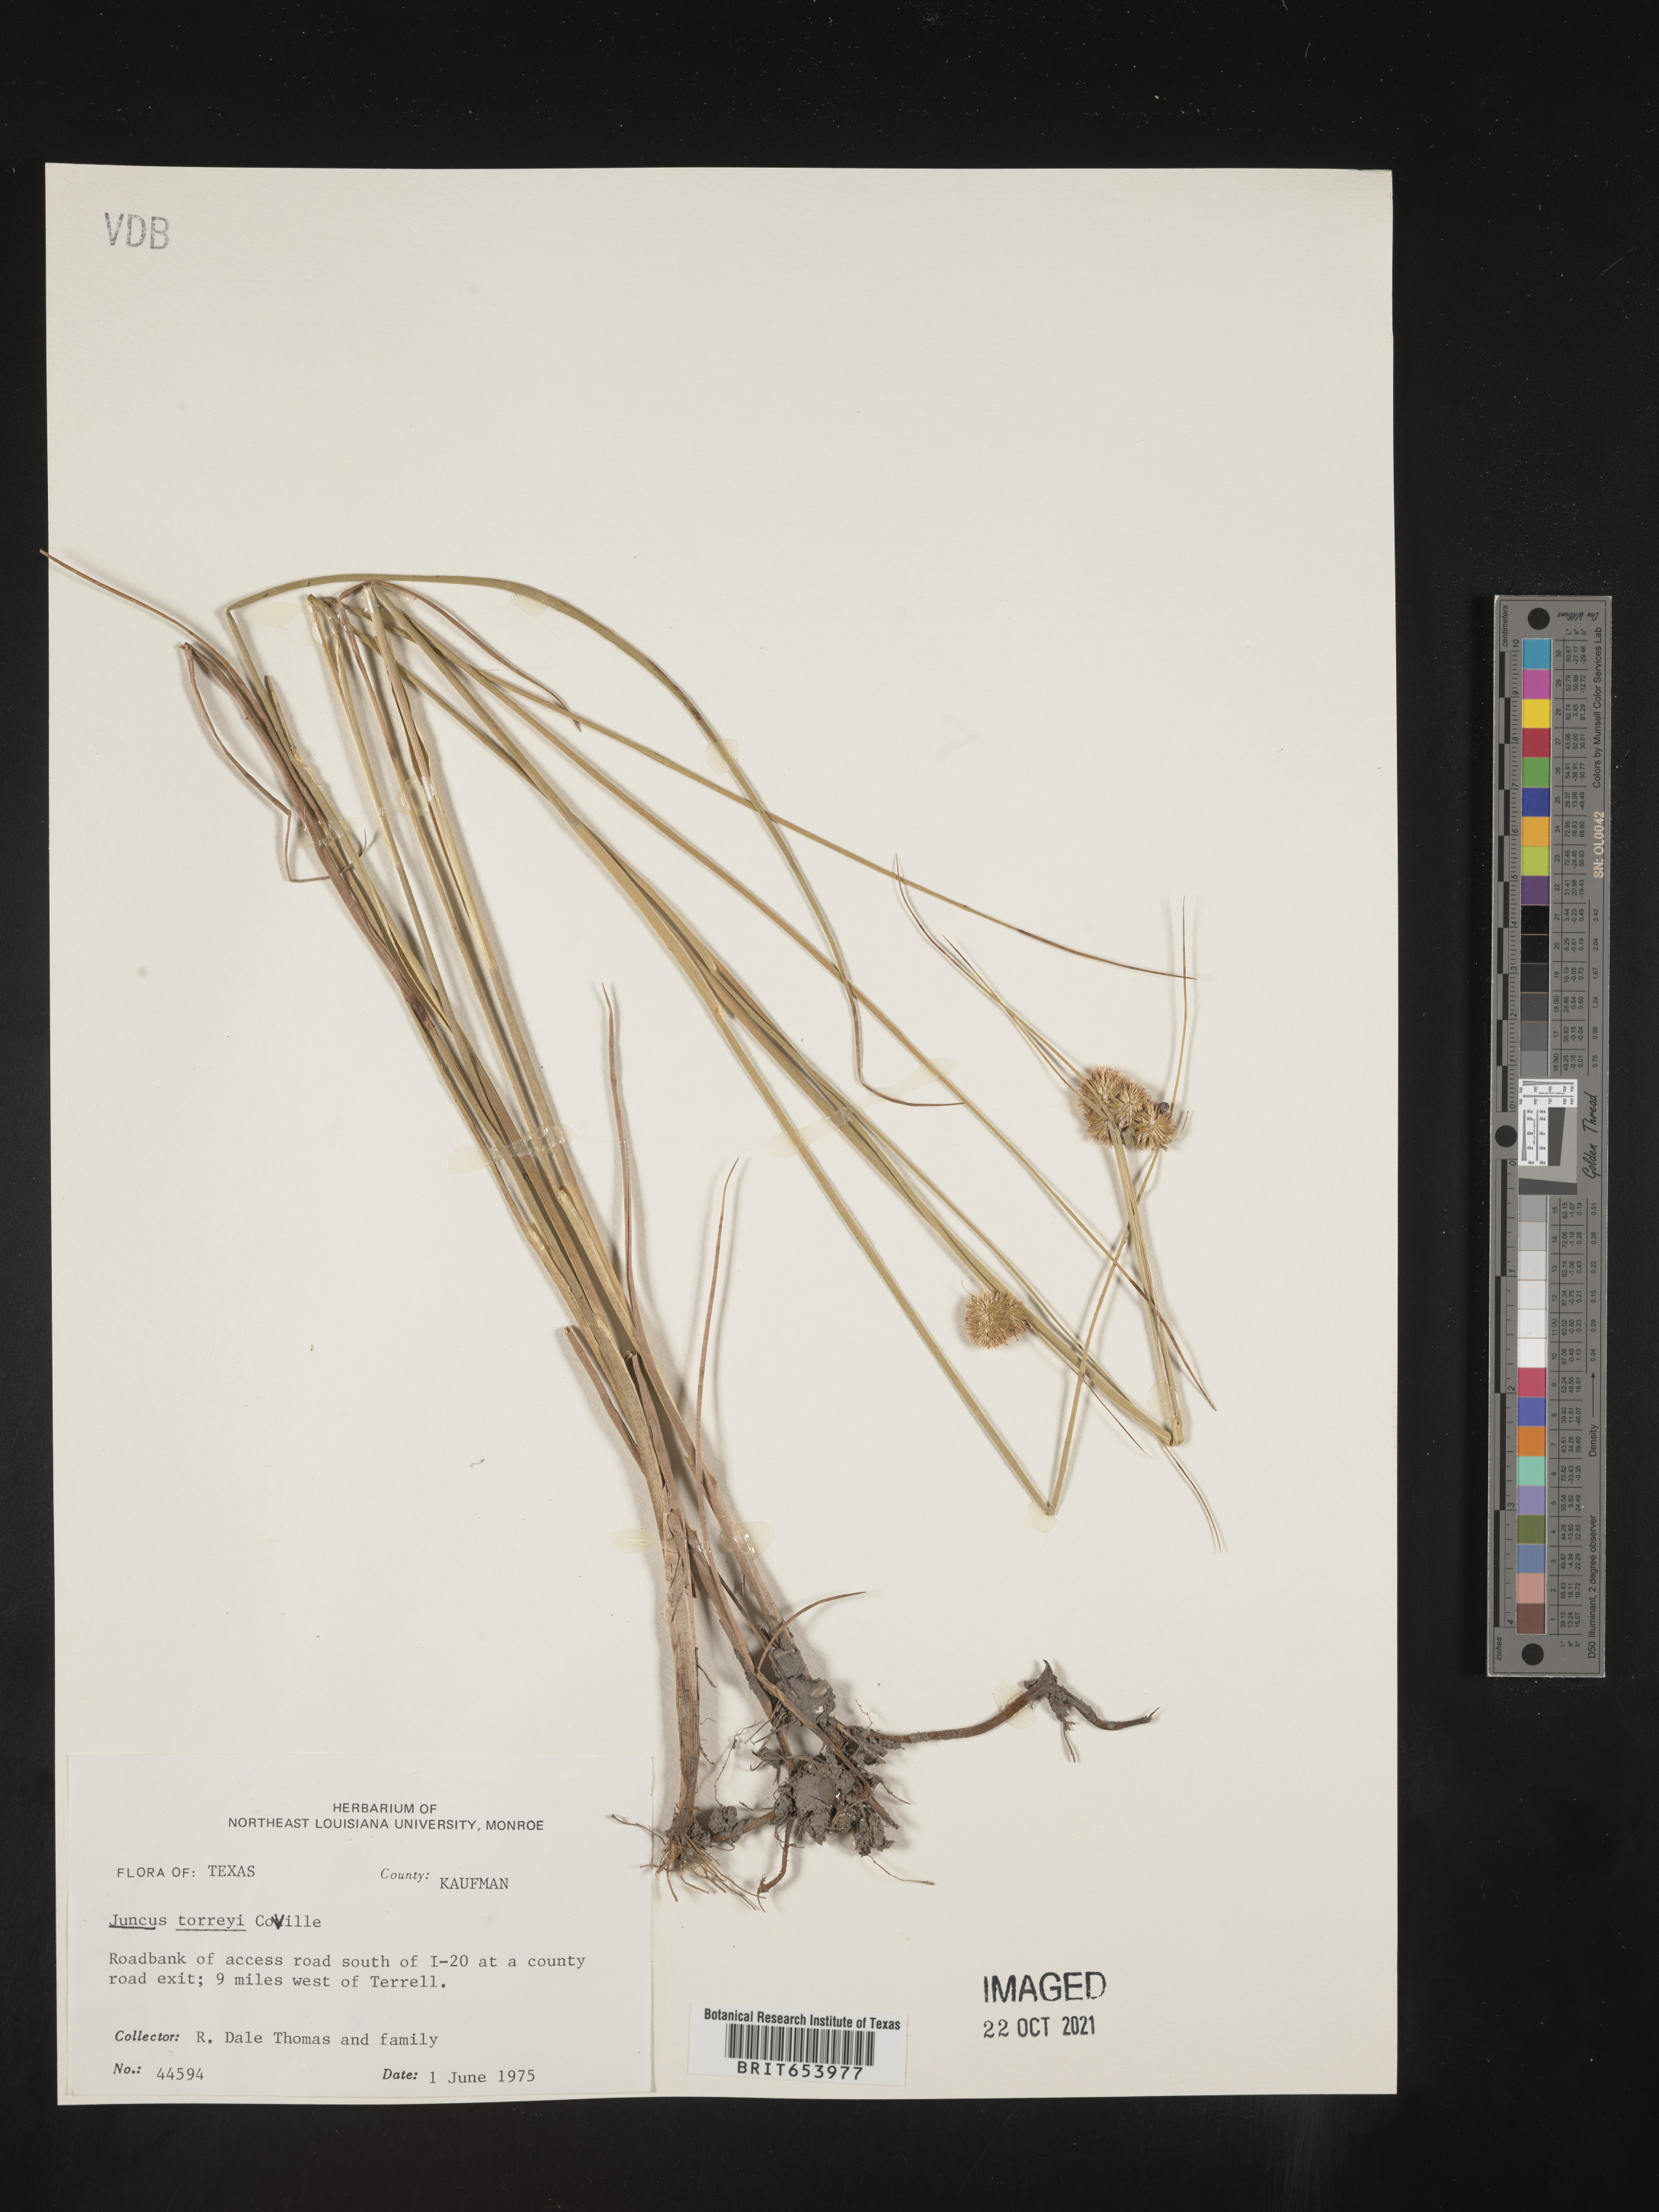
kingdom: Plantae
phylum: Tracheophyta
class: Liliopsida
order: Poales
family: Juncaceae
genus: Juncus
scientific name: Juncus torreyi
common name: Torrey's rush
